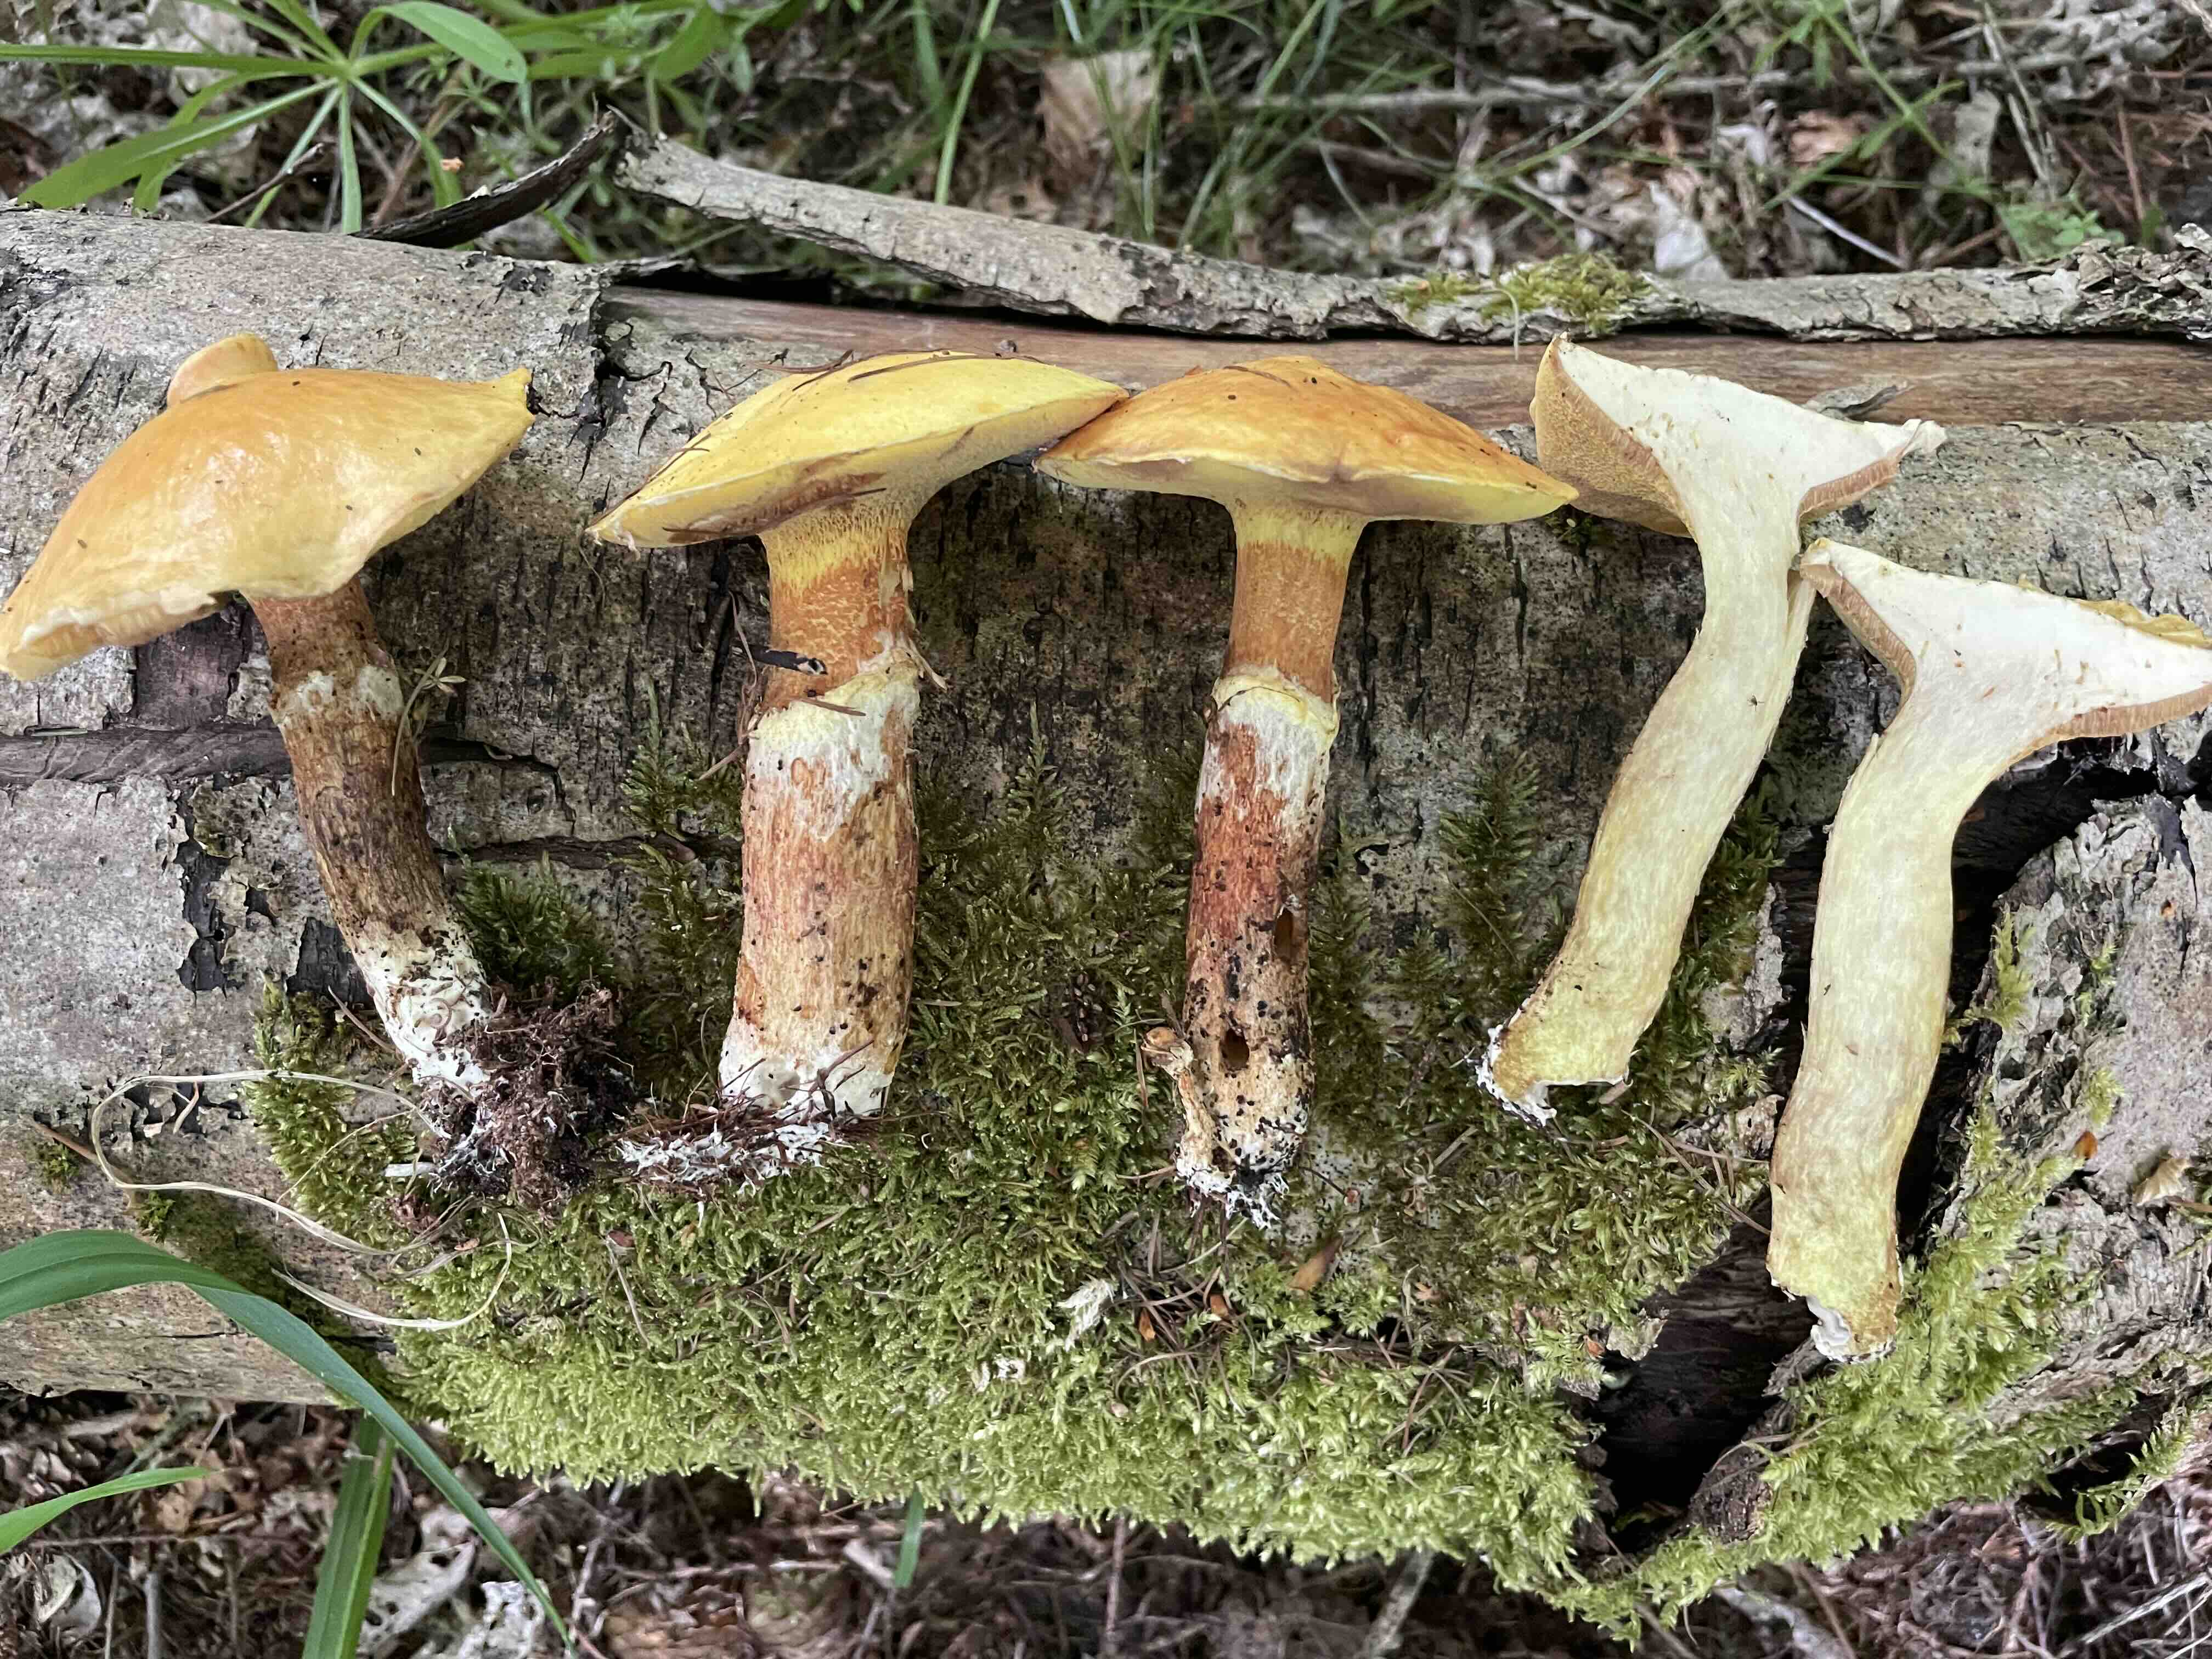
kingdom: Fungi
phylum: Basidiomycota
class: Agaricomycetes
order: Boletales
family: Suillaceae
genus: Suillus
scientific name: Suillus grevillei
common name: lærke-slimrørhat
